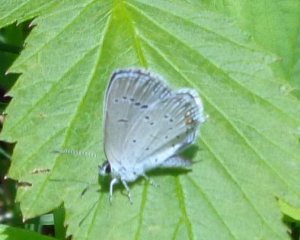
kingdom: Animalia
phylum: Arthropoda
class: Insecta
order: Lepidoptera
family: Lycaenidae
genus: Elkalyce
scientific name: Elkalyce comyntas
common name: Eastern Tailed-Blue
